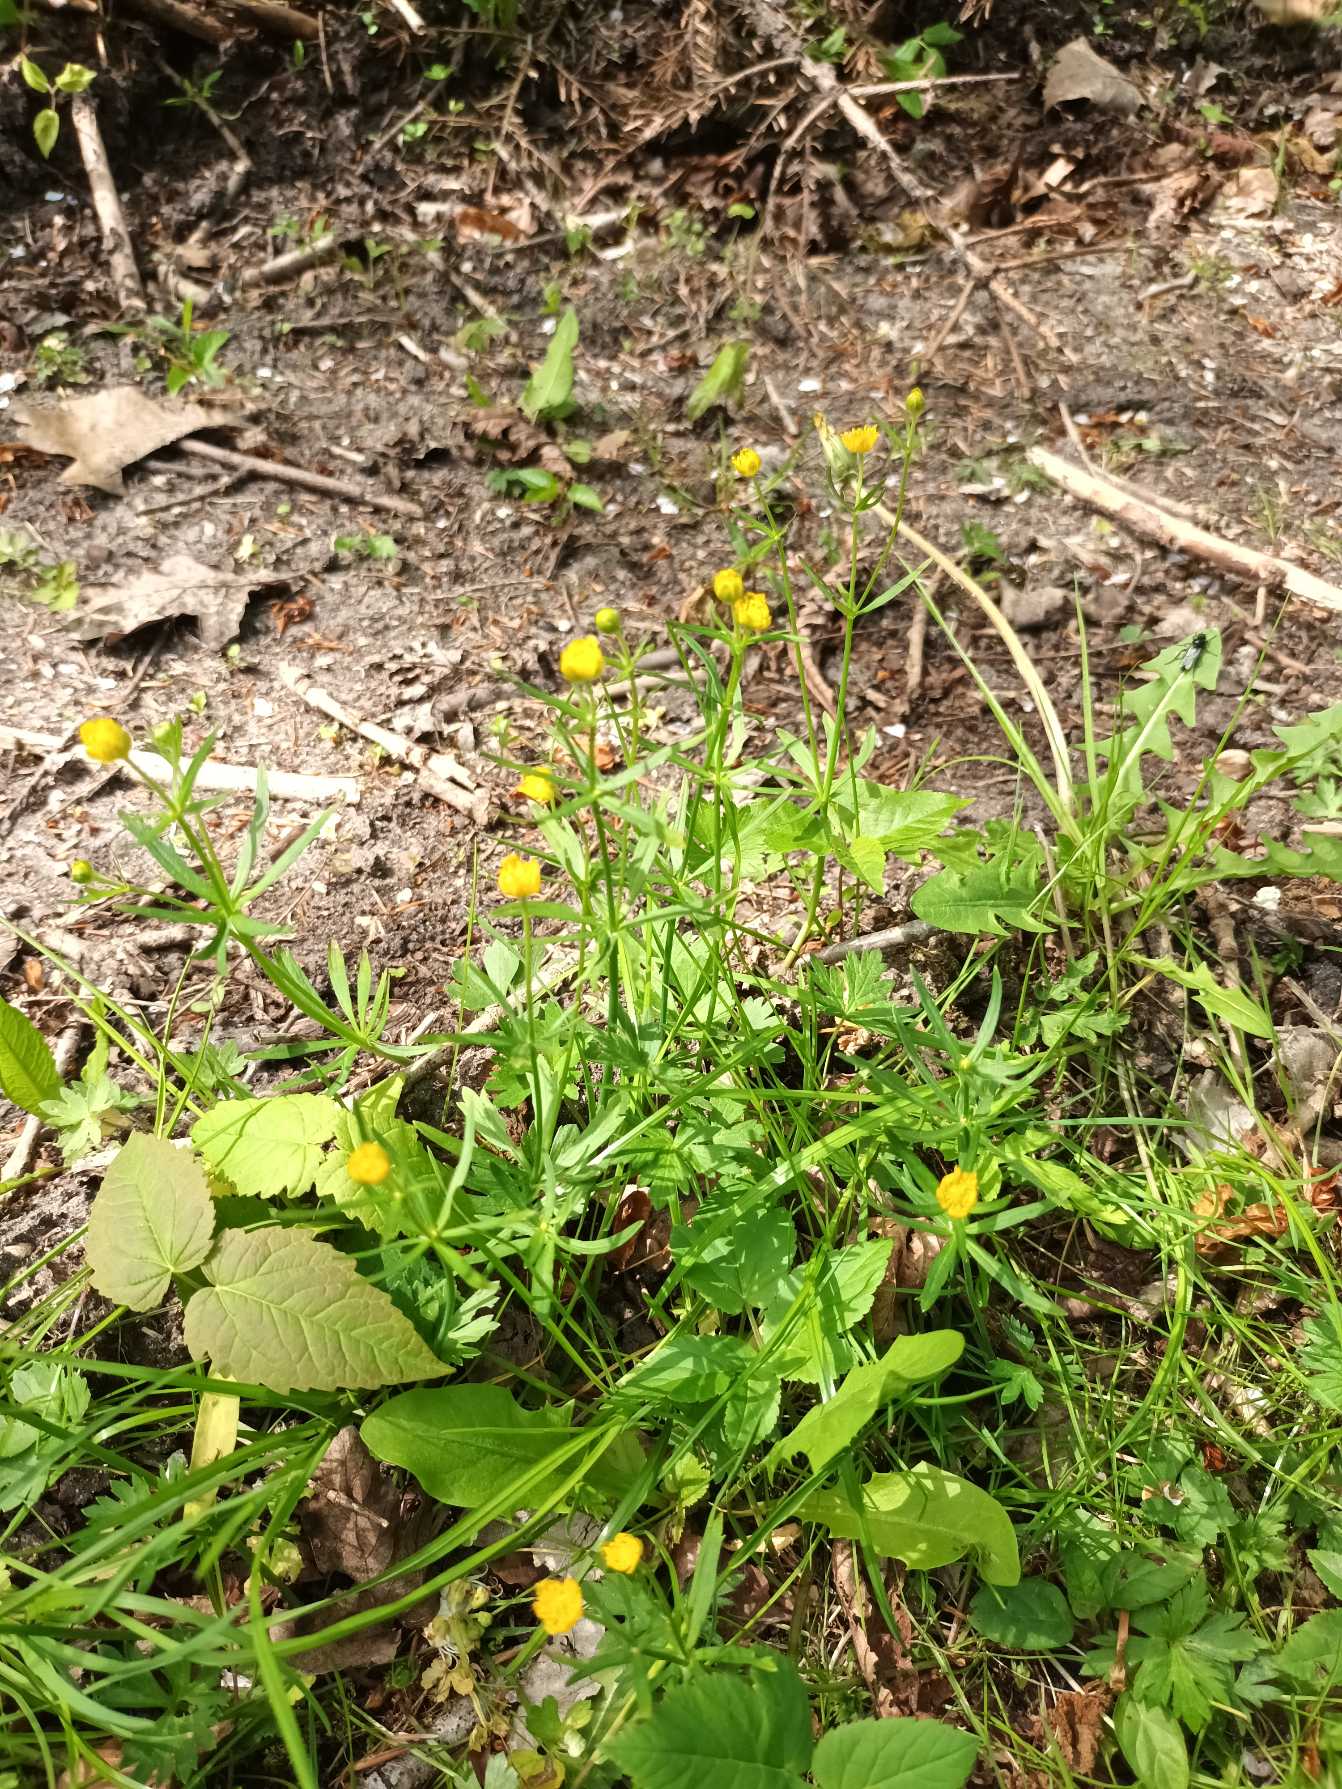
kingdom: Plantae
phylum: Tracheophyta
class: Magnoliopsida
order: Ranunculales
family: Ranunculaceae
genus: Ranunculus
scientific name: Ranunculus auricomus
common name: Nyrebladet ranunkel
